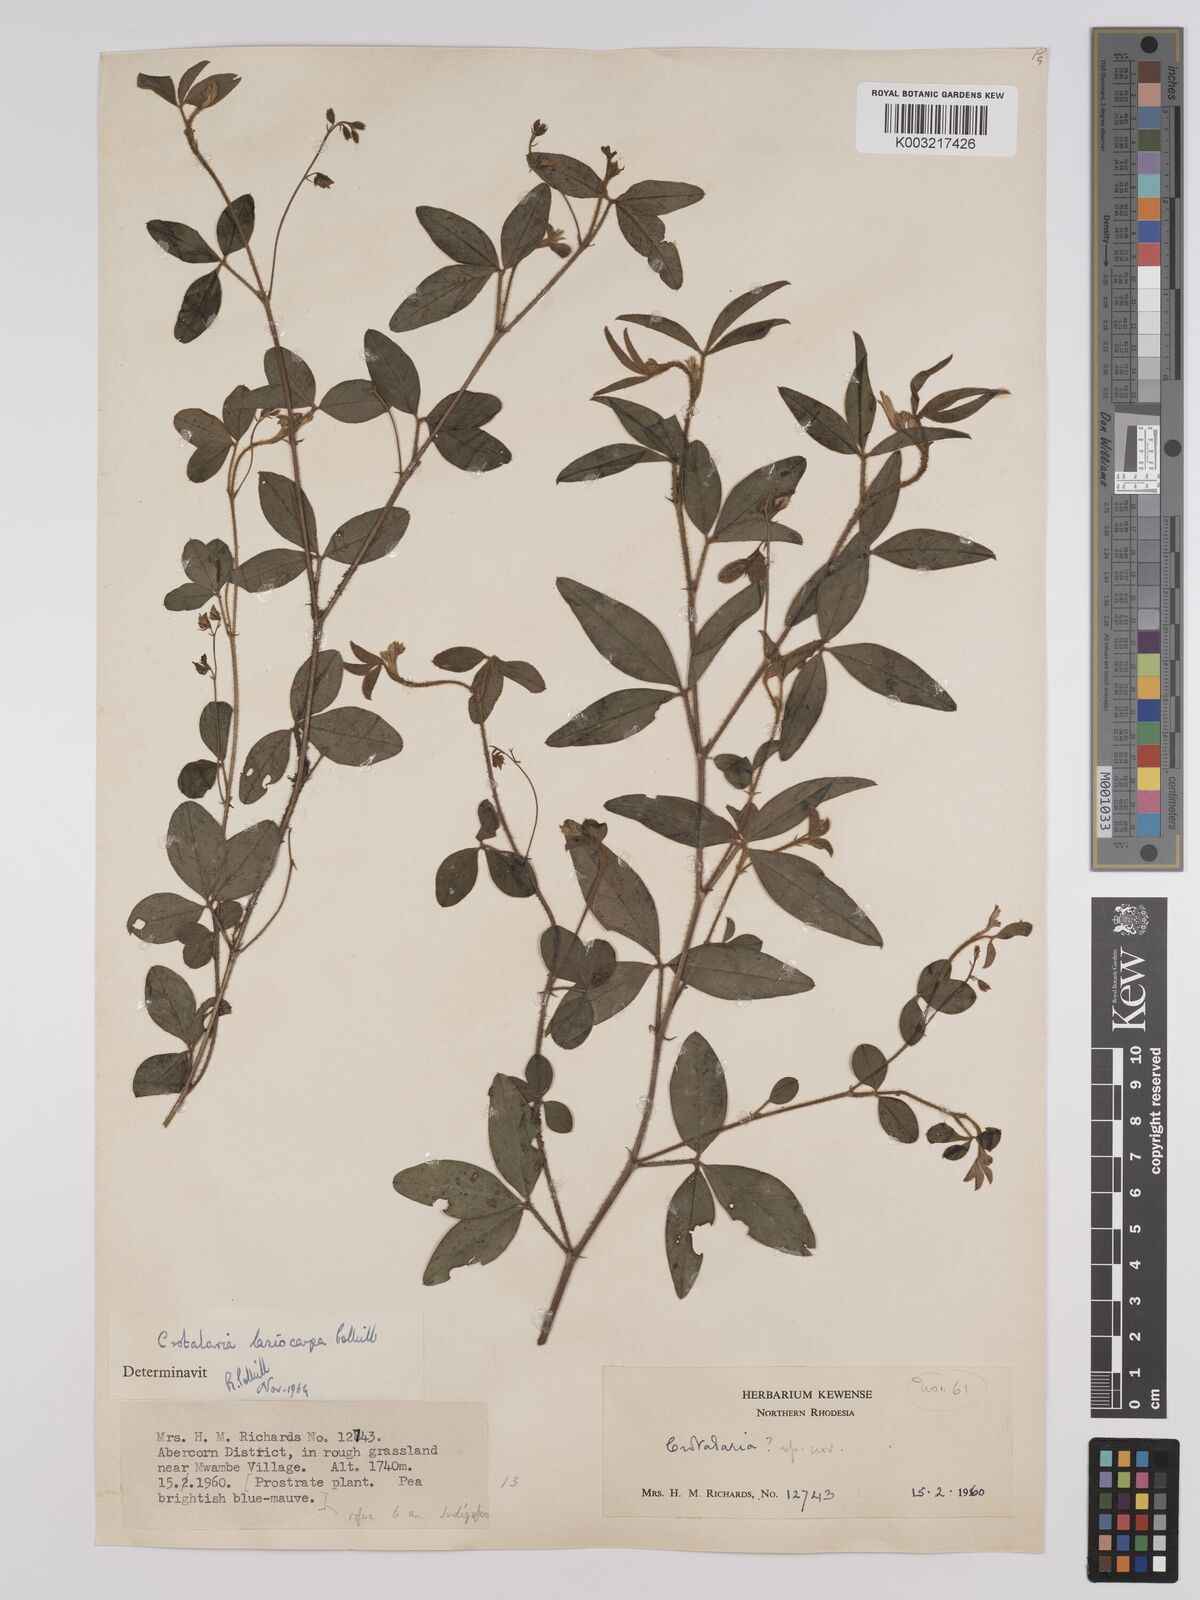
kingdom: Plantae
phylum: Tracheophyta
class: Magnoliopsida
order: Fabales
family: Fabaceae
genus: Crotalaria
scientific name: Crotalaria lasiocarpa
